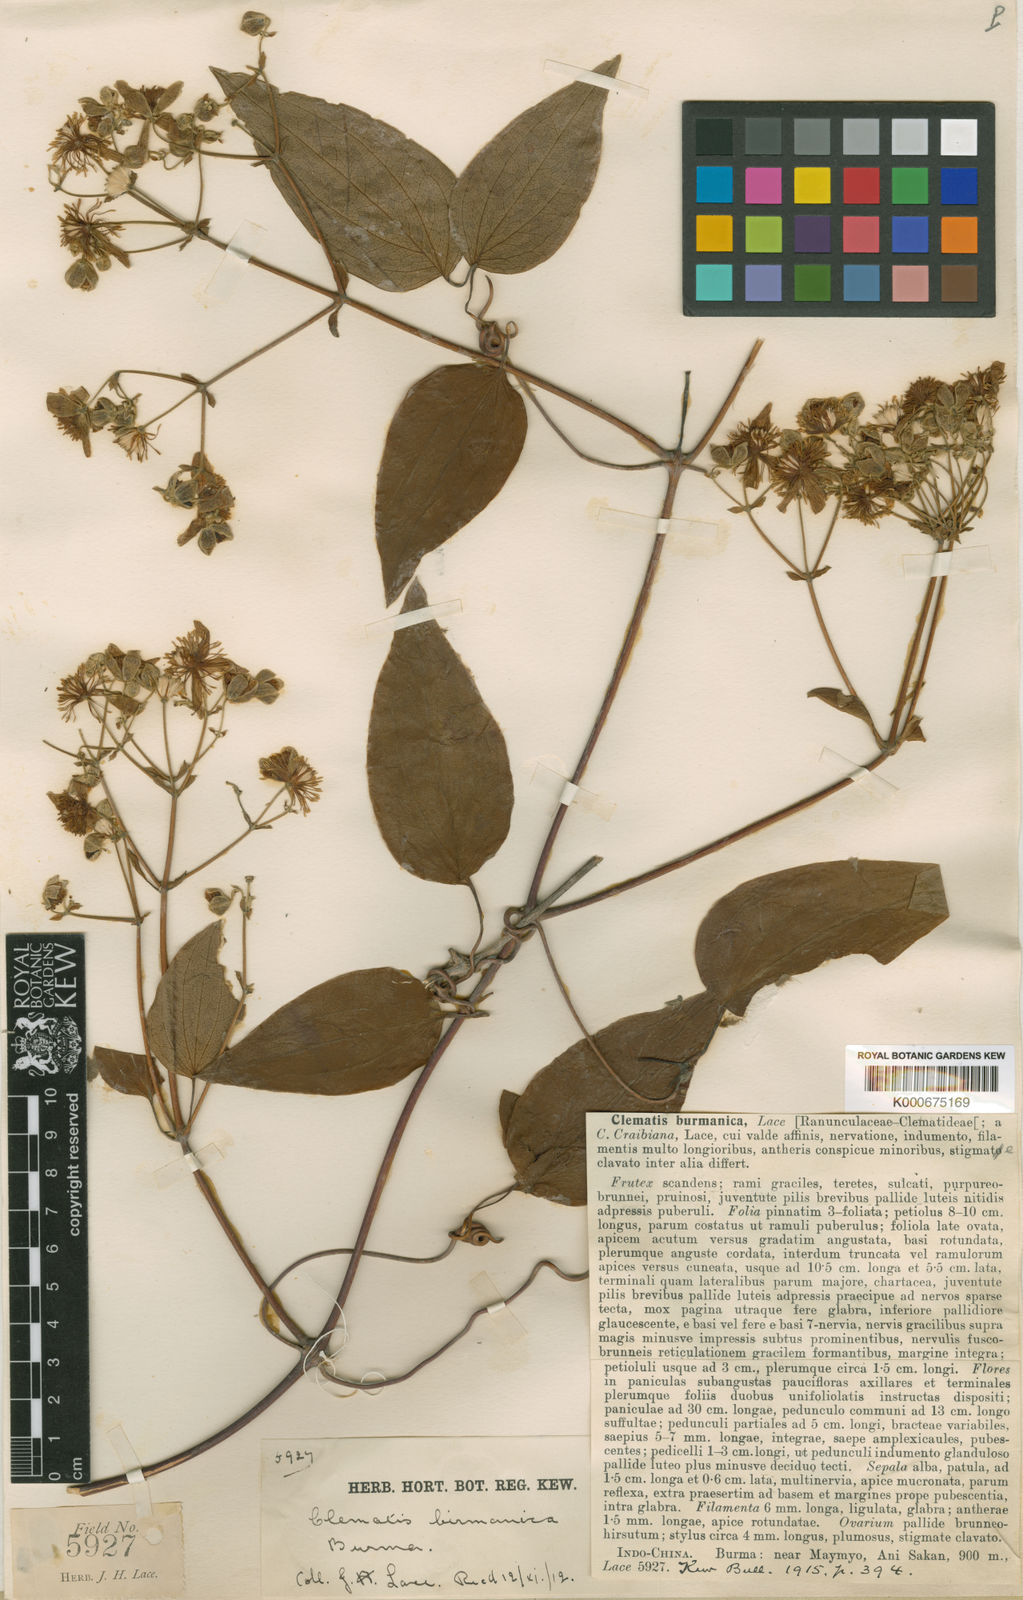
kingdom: Plantae
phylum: Tracheophyta
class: Magnoliopsida
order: Ranunculales
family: Ranunculaceae
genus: Clematis
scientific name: Clematis burmanica
